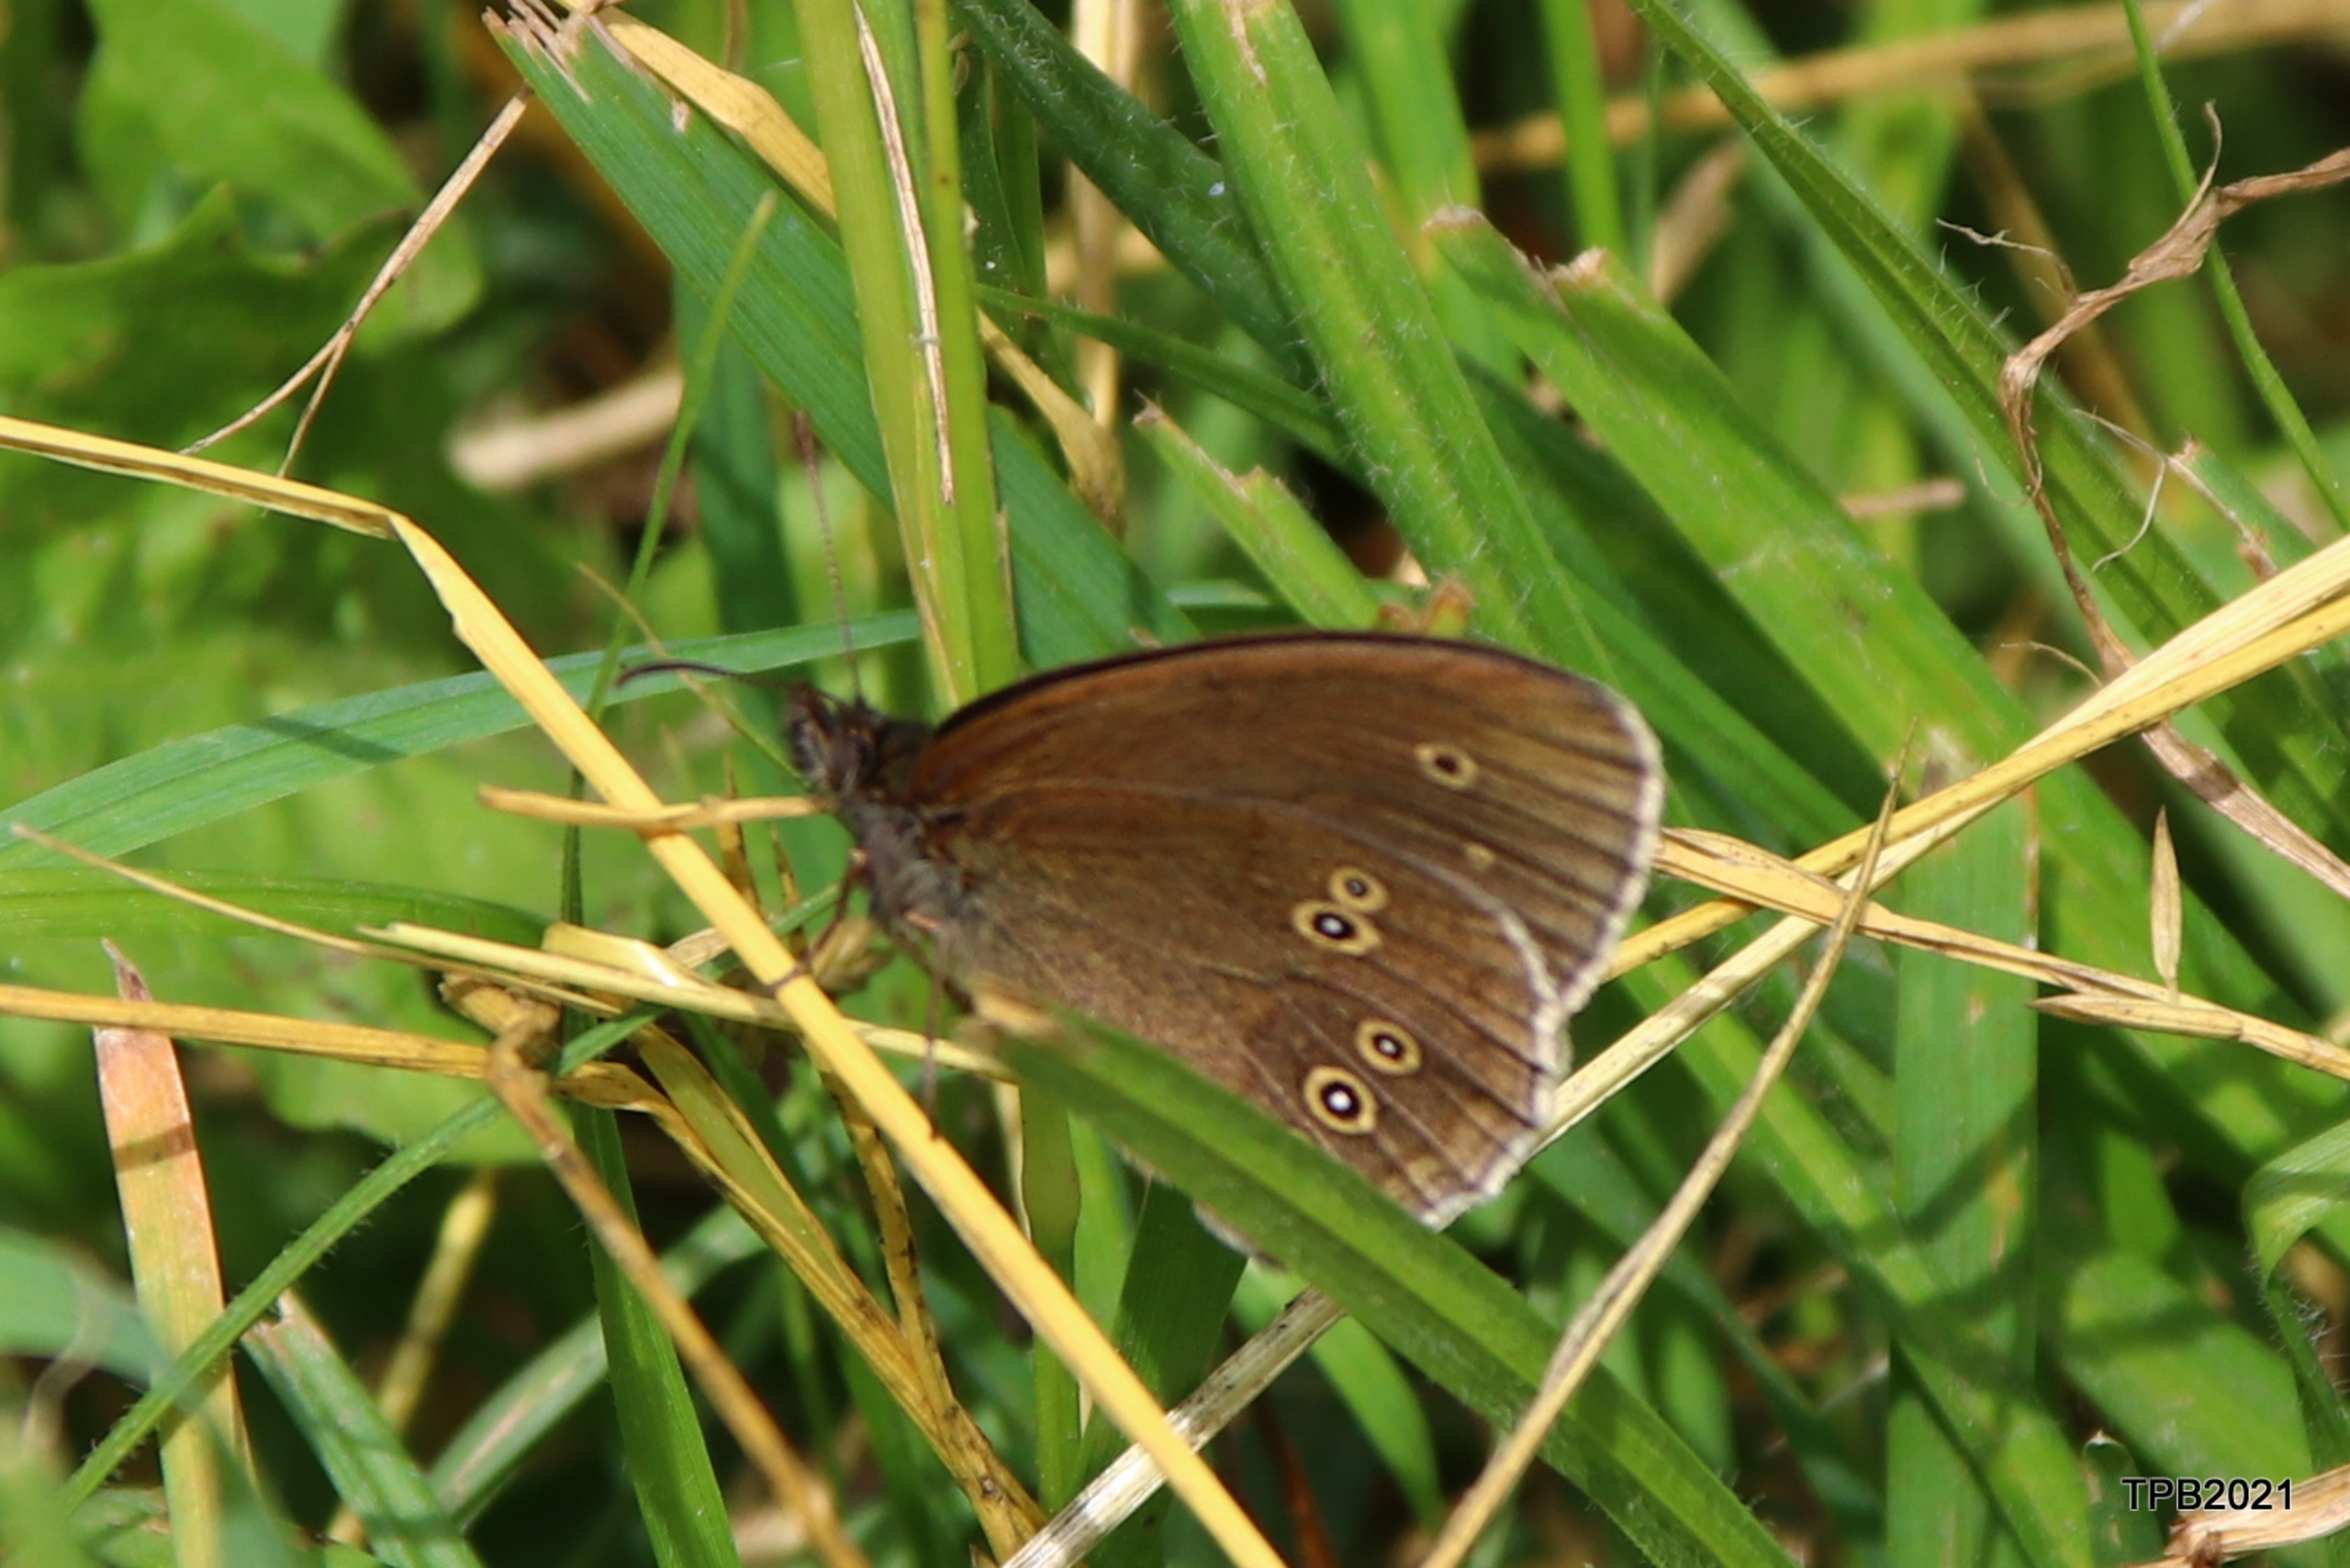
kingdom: Animalia
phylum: Arthropoda
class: Insecta
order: Lepidoptera
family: Nymphalidae
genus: Aphantopus
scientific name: Aphantopus hyperantus
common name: Engrandøje
